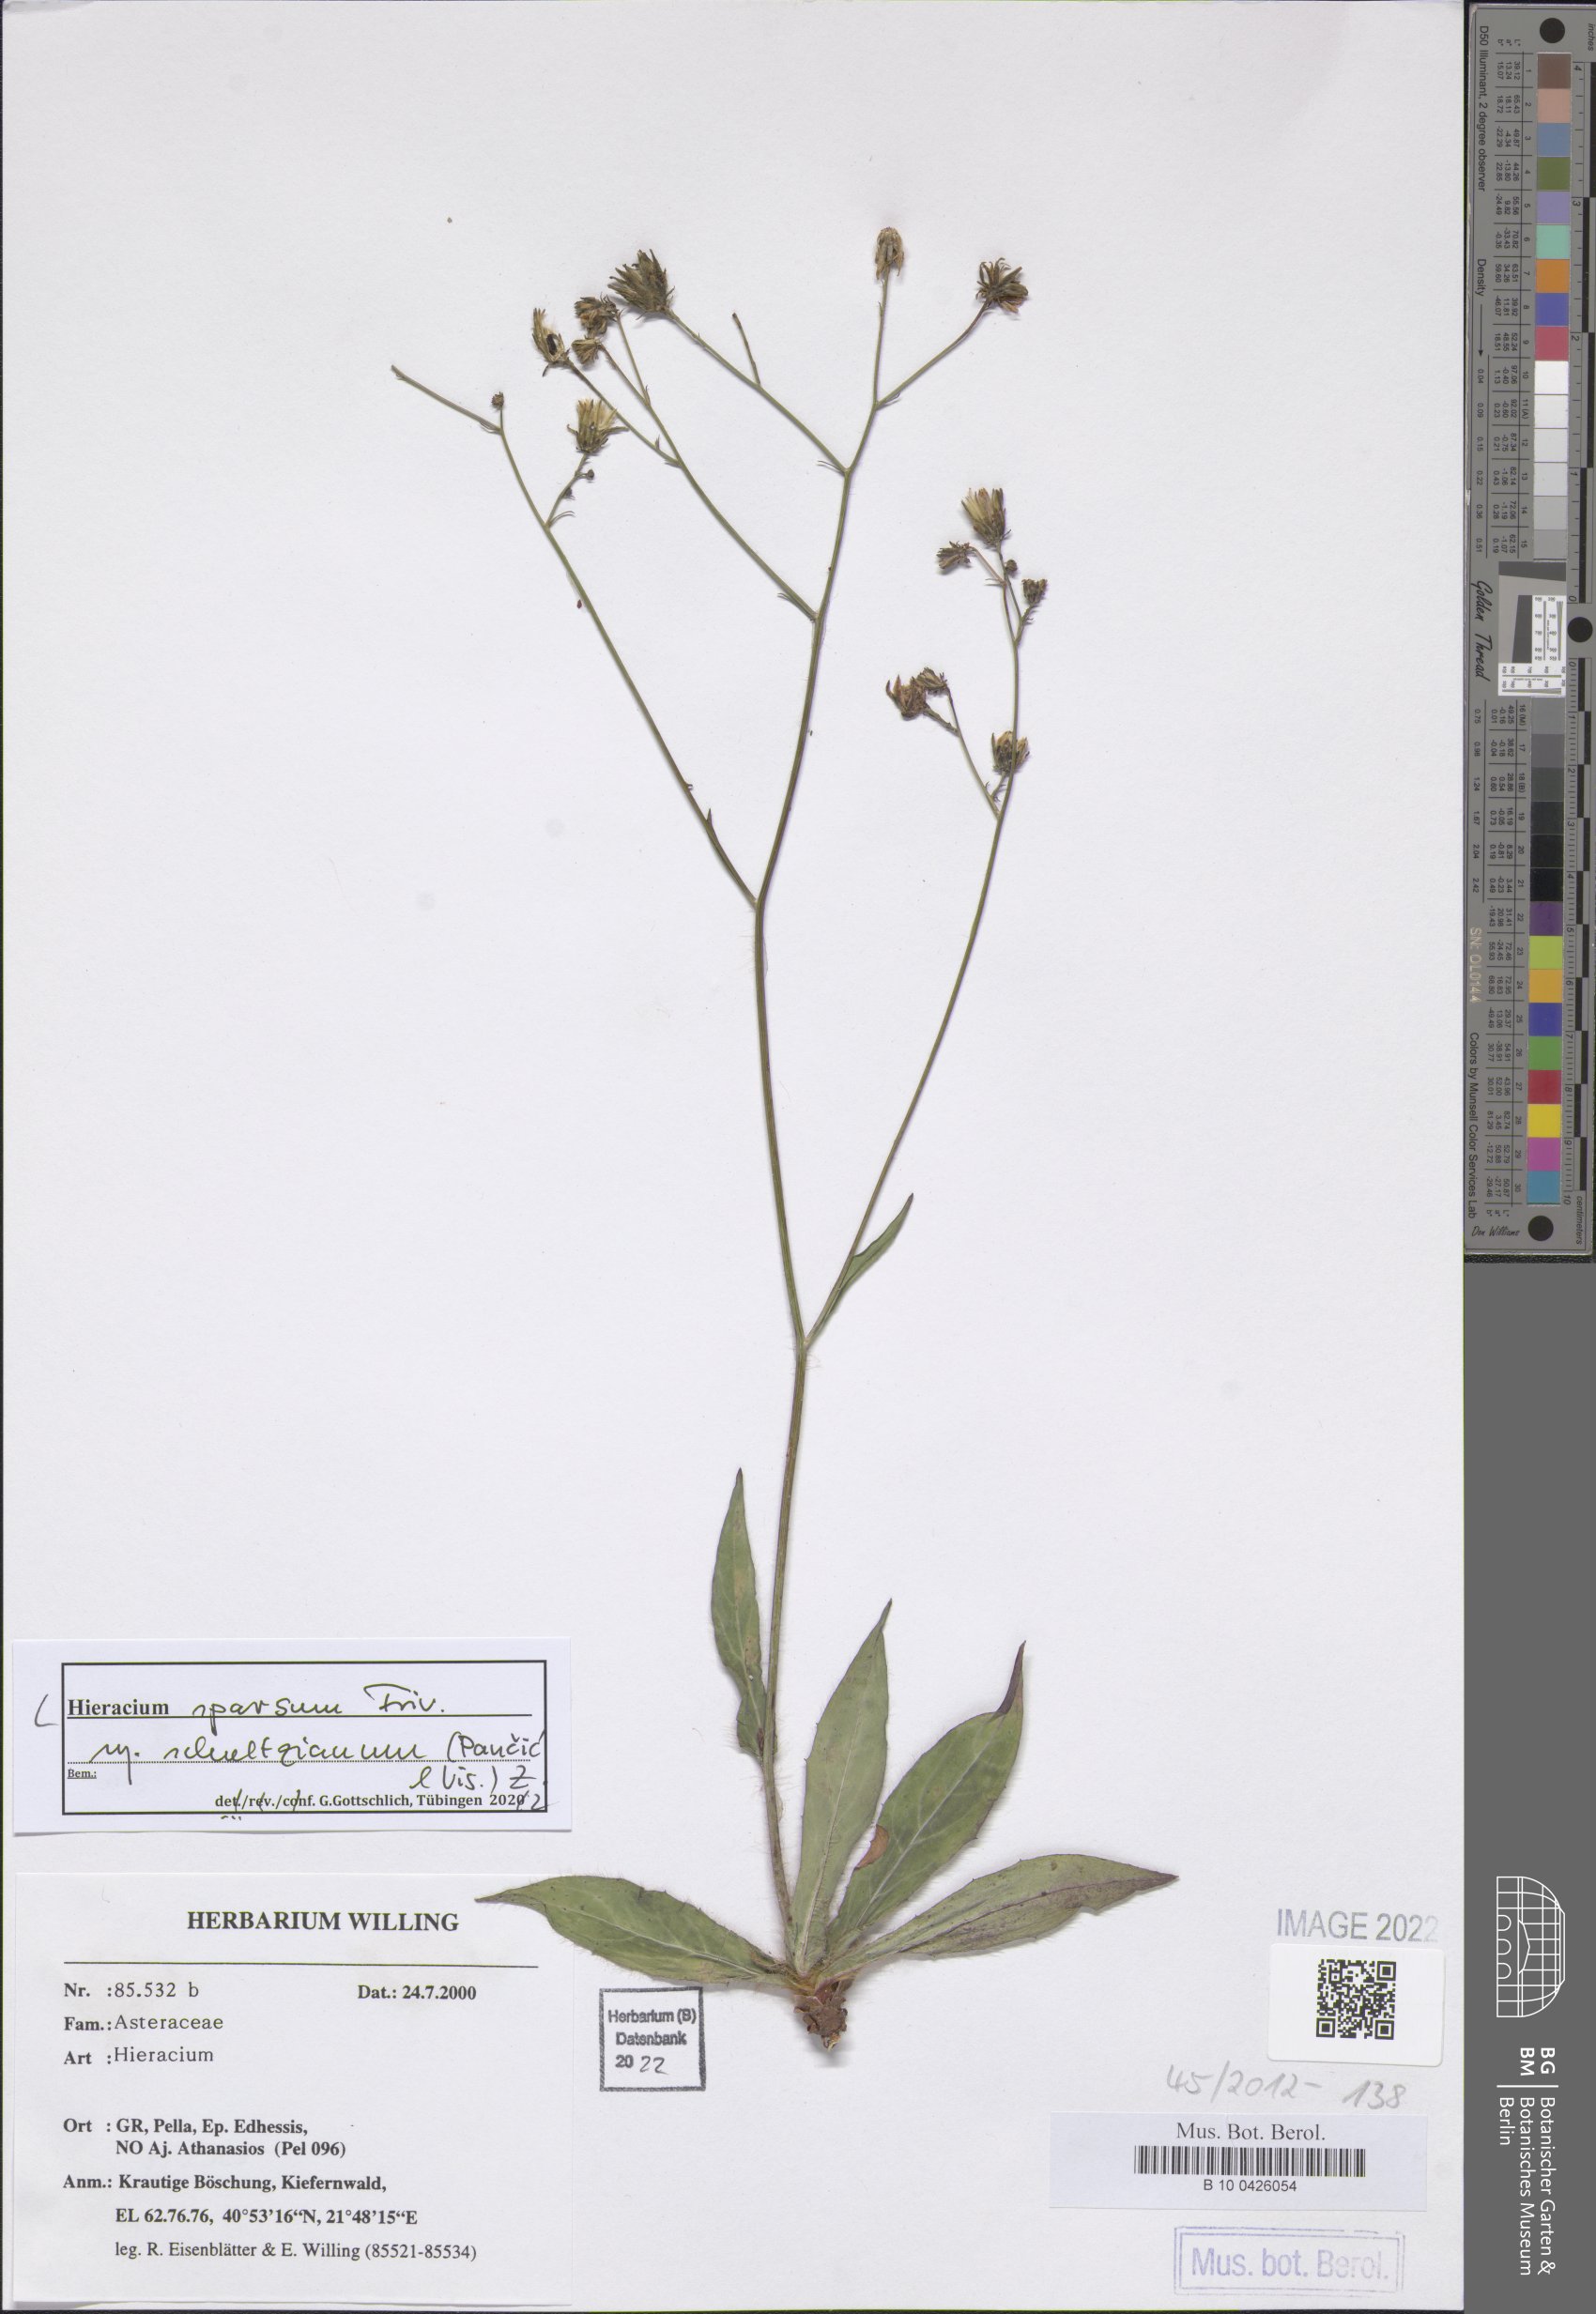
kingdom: Plantae
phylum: Tracheophyta
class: Magnoliopsida
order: Asterales
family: Asteraceae
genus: Hieracium
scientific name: Hieracium sparsum
